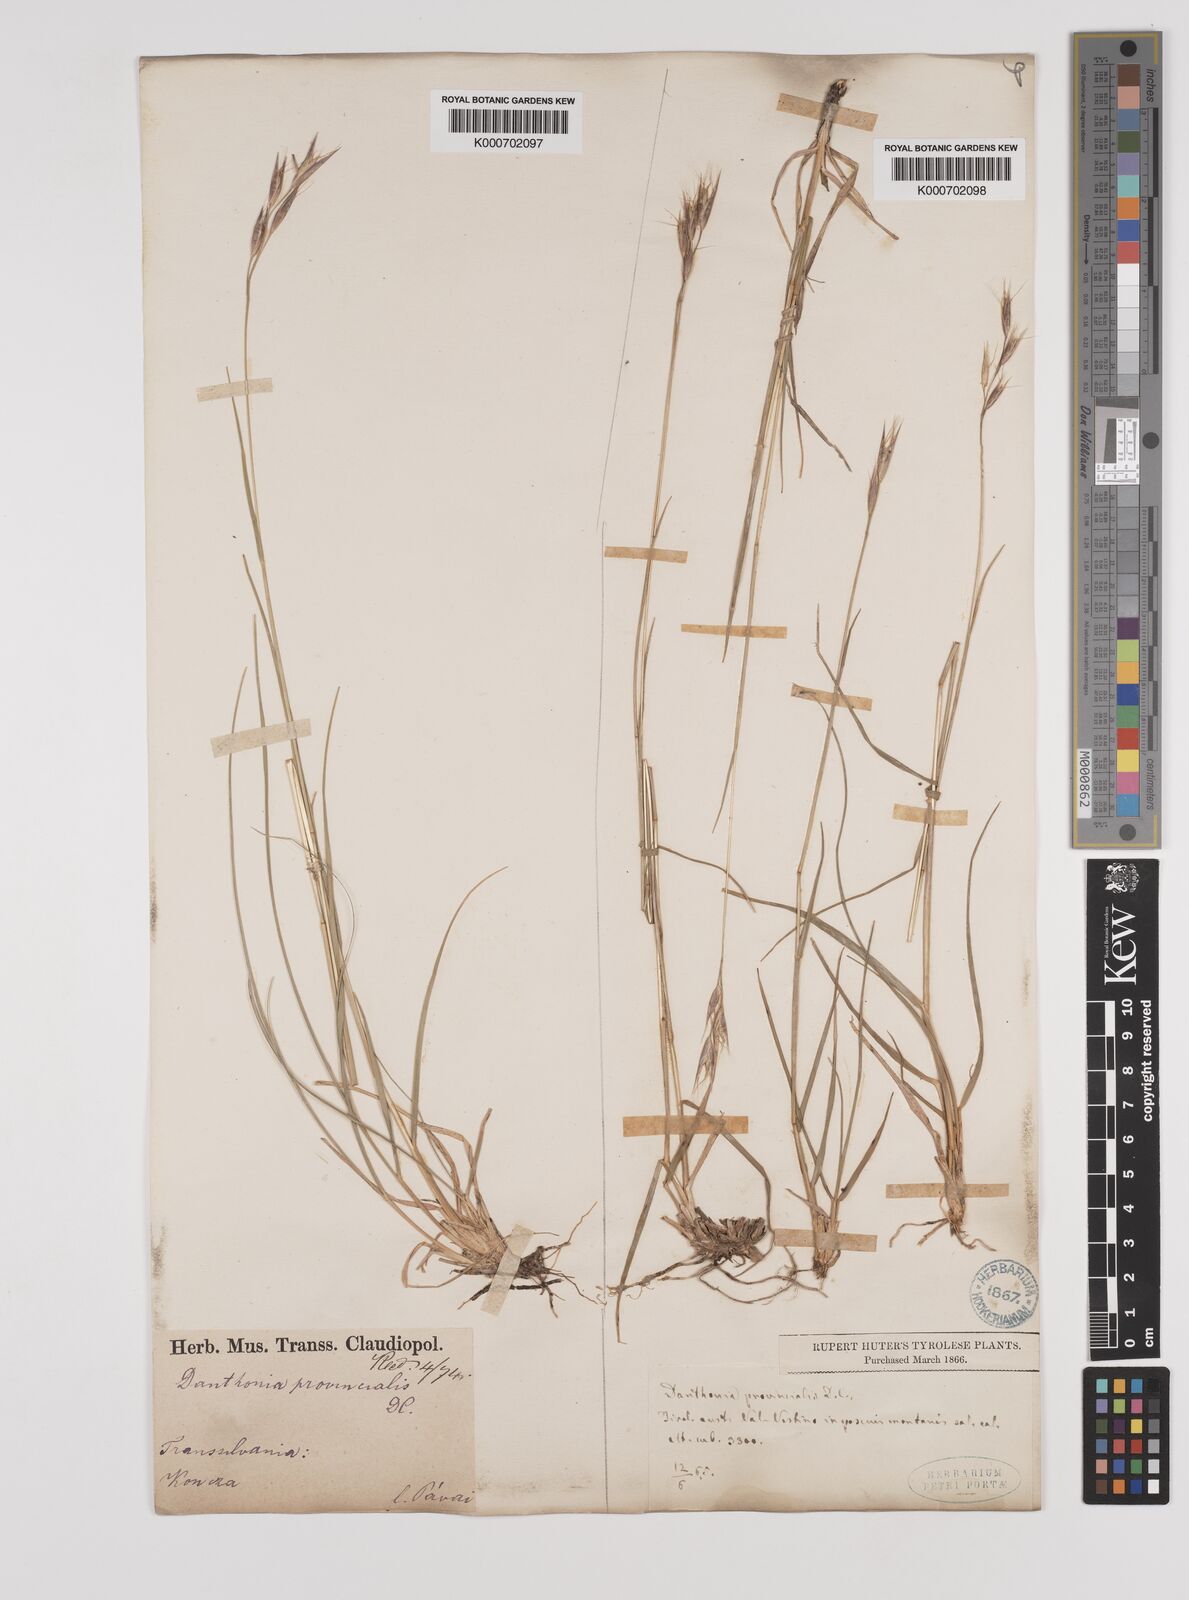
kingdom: Plantae
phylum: Tracheophyta
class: Liliopsida
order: Poales
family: Poaceae
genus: Danthonia
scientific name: Danthonia alpina
